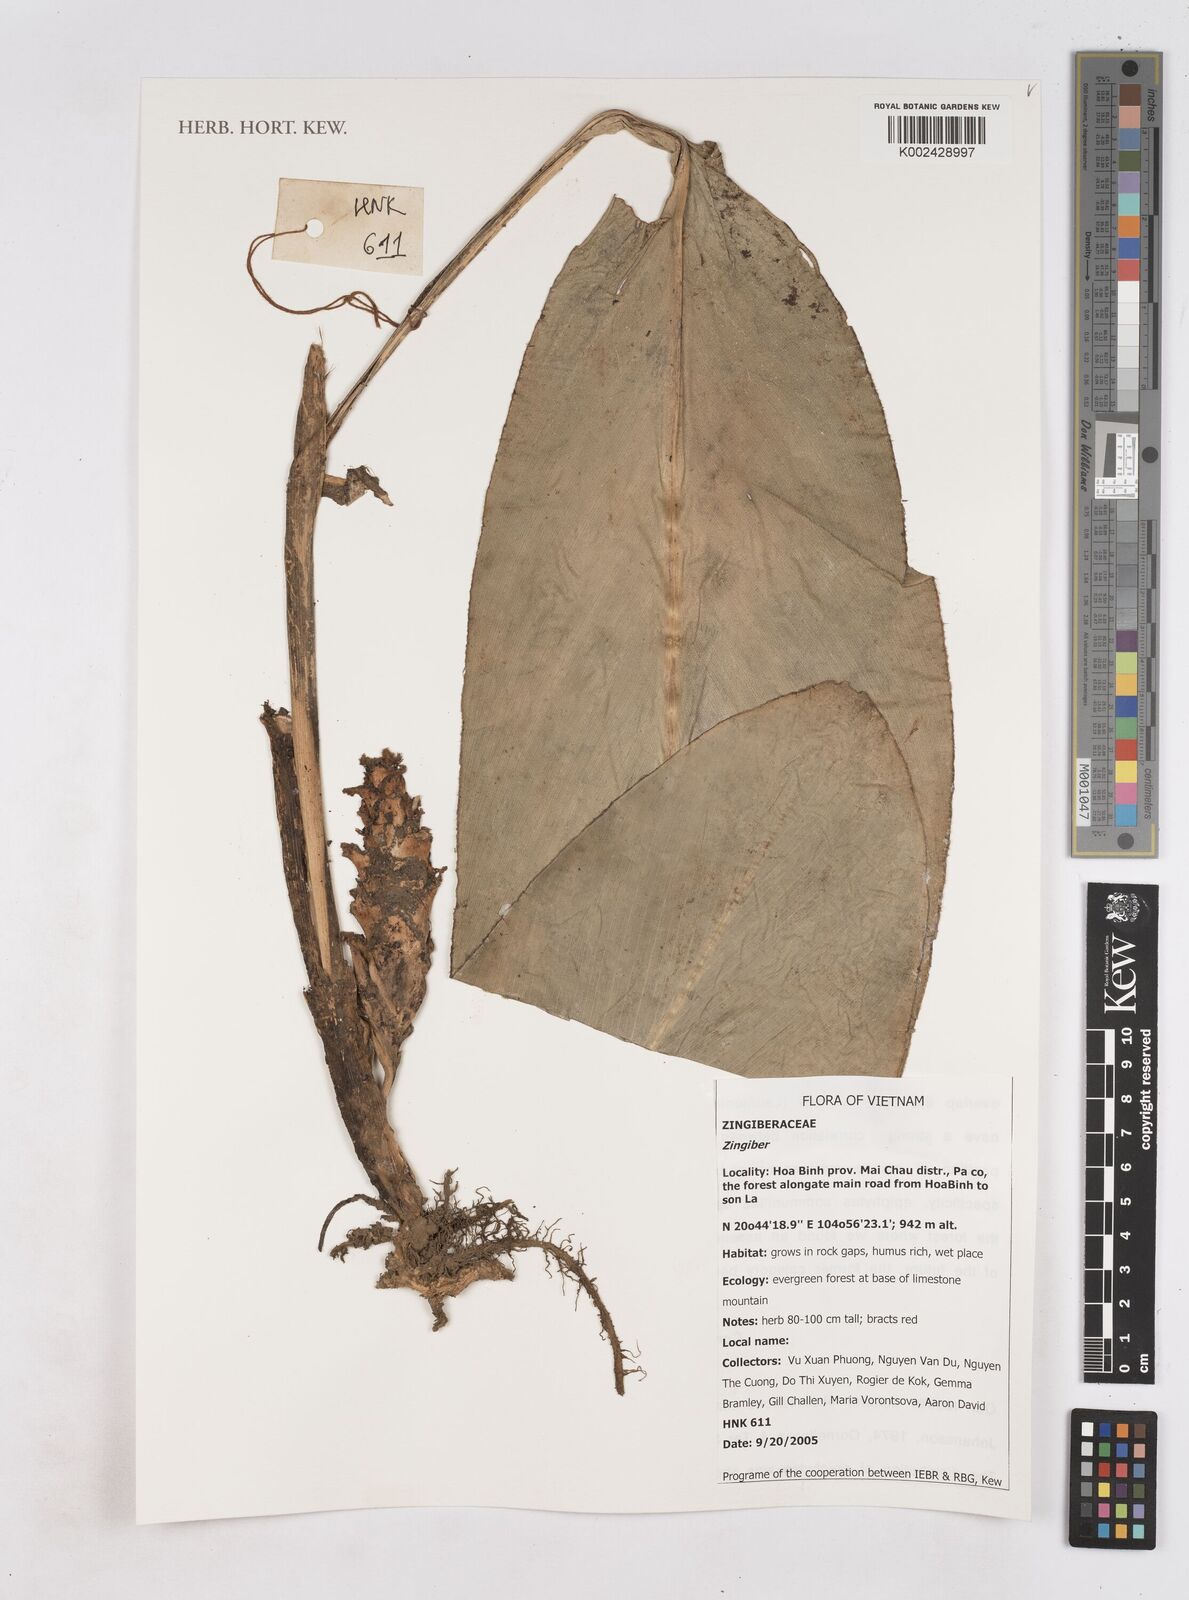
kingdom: Plantae
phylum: Tracheophyta
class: Liliopsida
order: Zingiberales
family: Zingiberaceae
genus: Zingiber
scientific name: Zingiber
